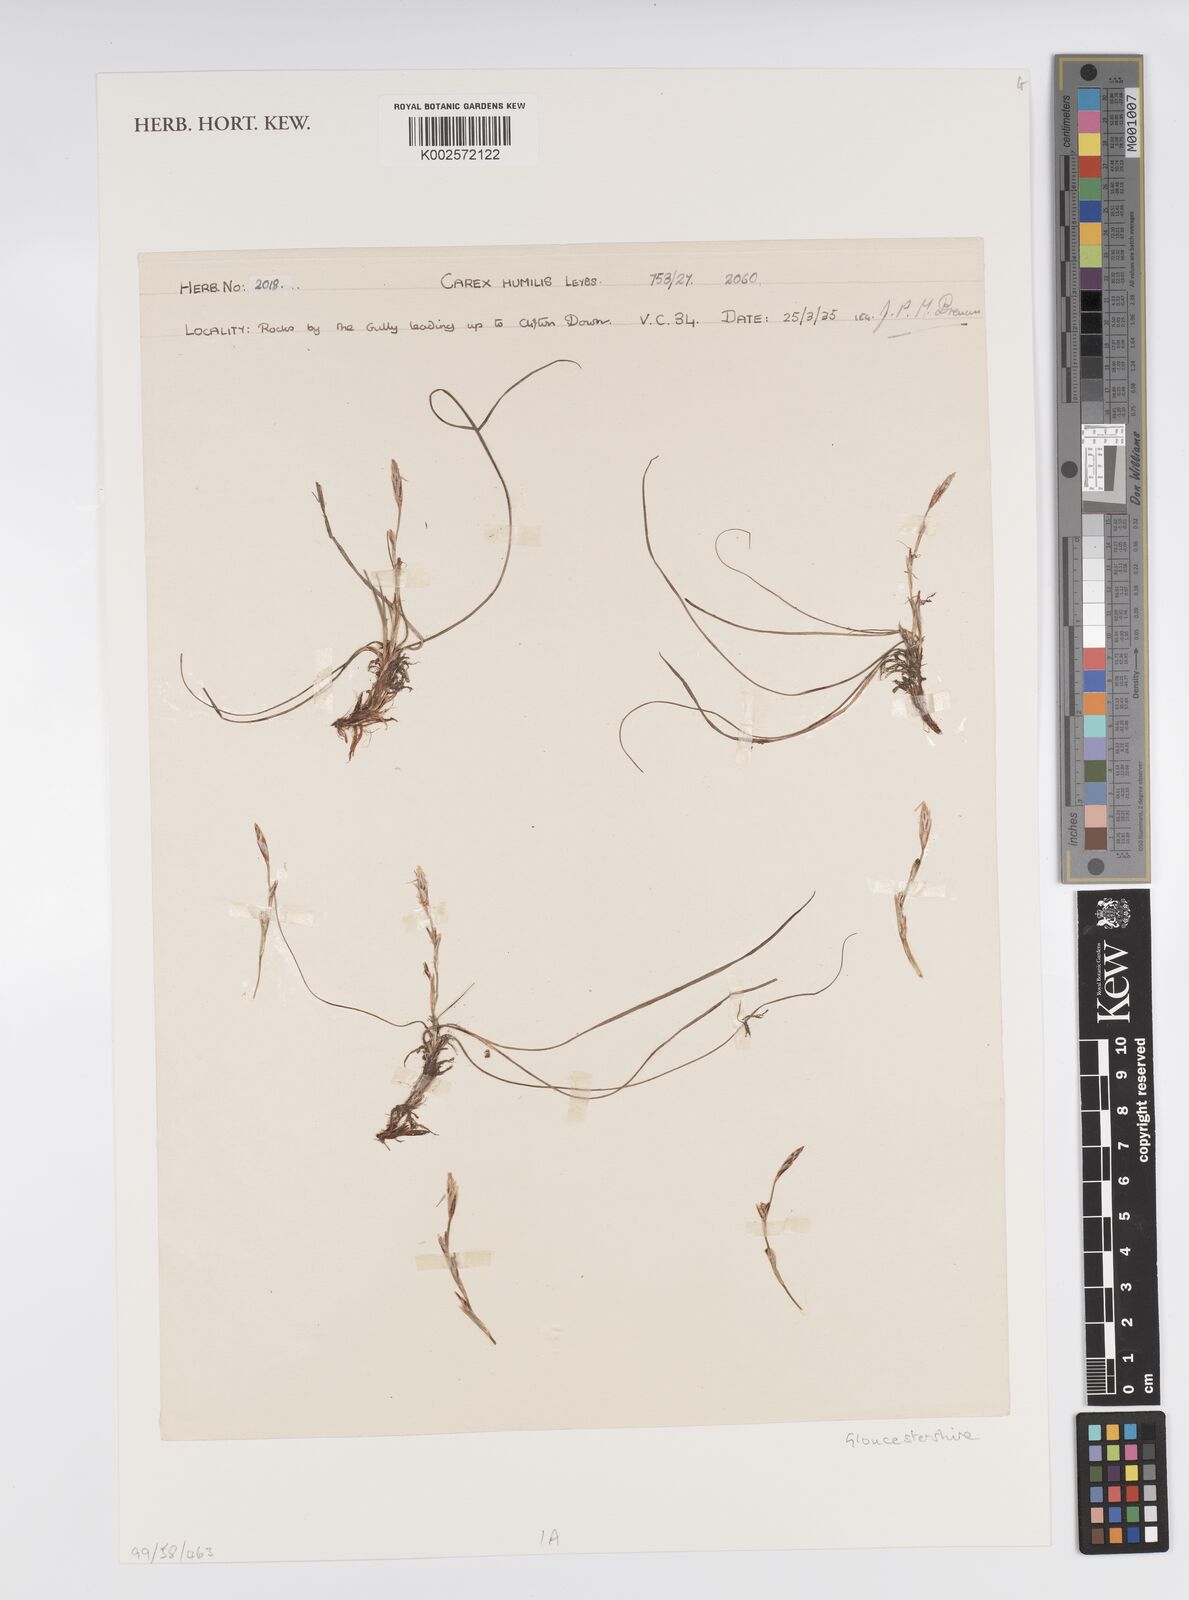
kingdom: Plantae
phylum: Tracheophyta
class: Liliopsida
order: Poales
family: Cyperaceae
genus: Carex
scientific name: Carex humilis
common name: Dwarf sedge
